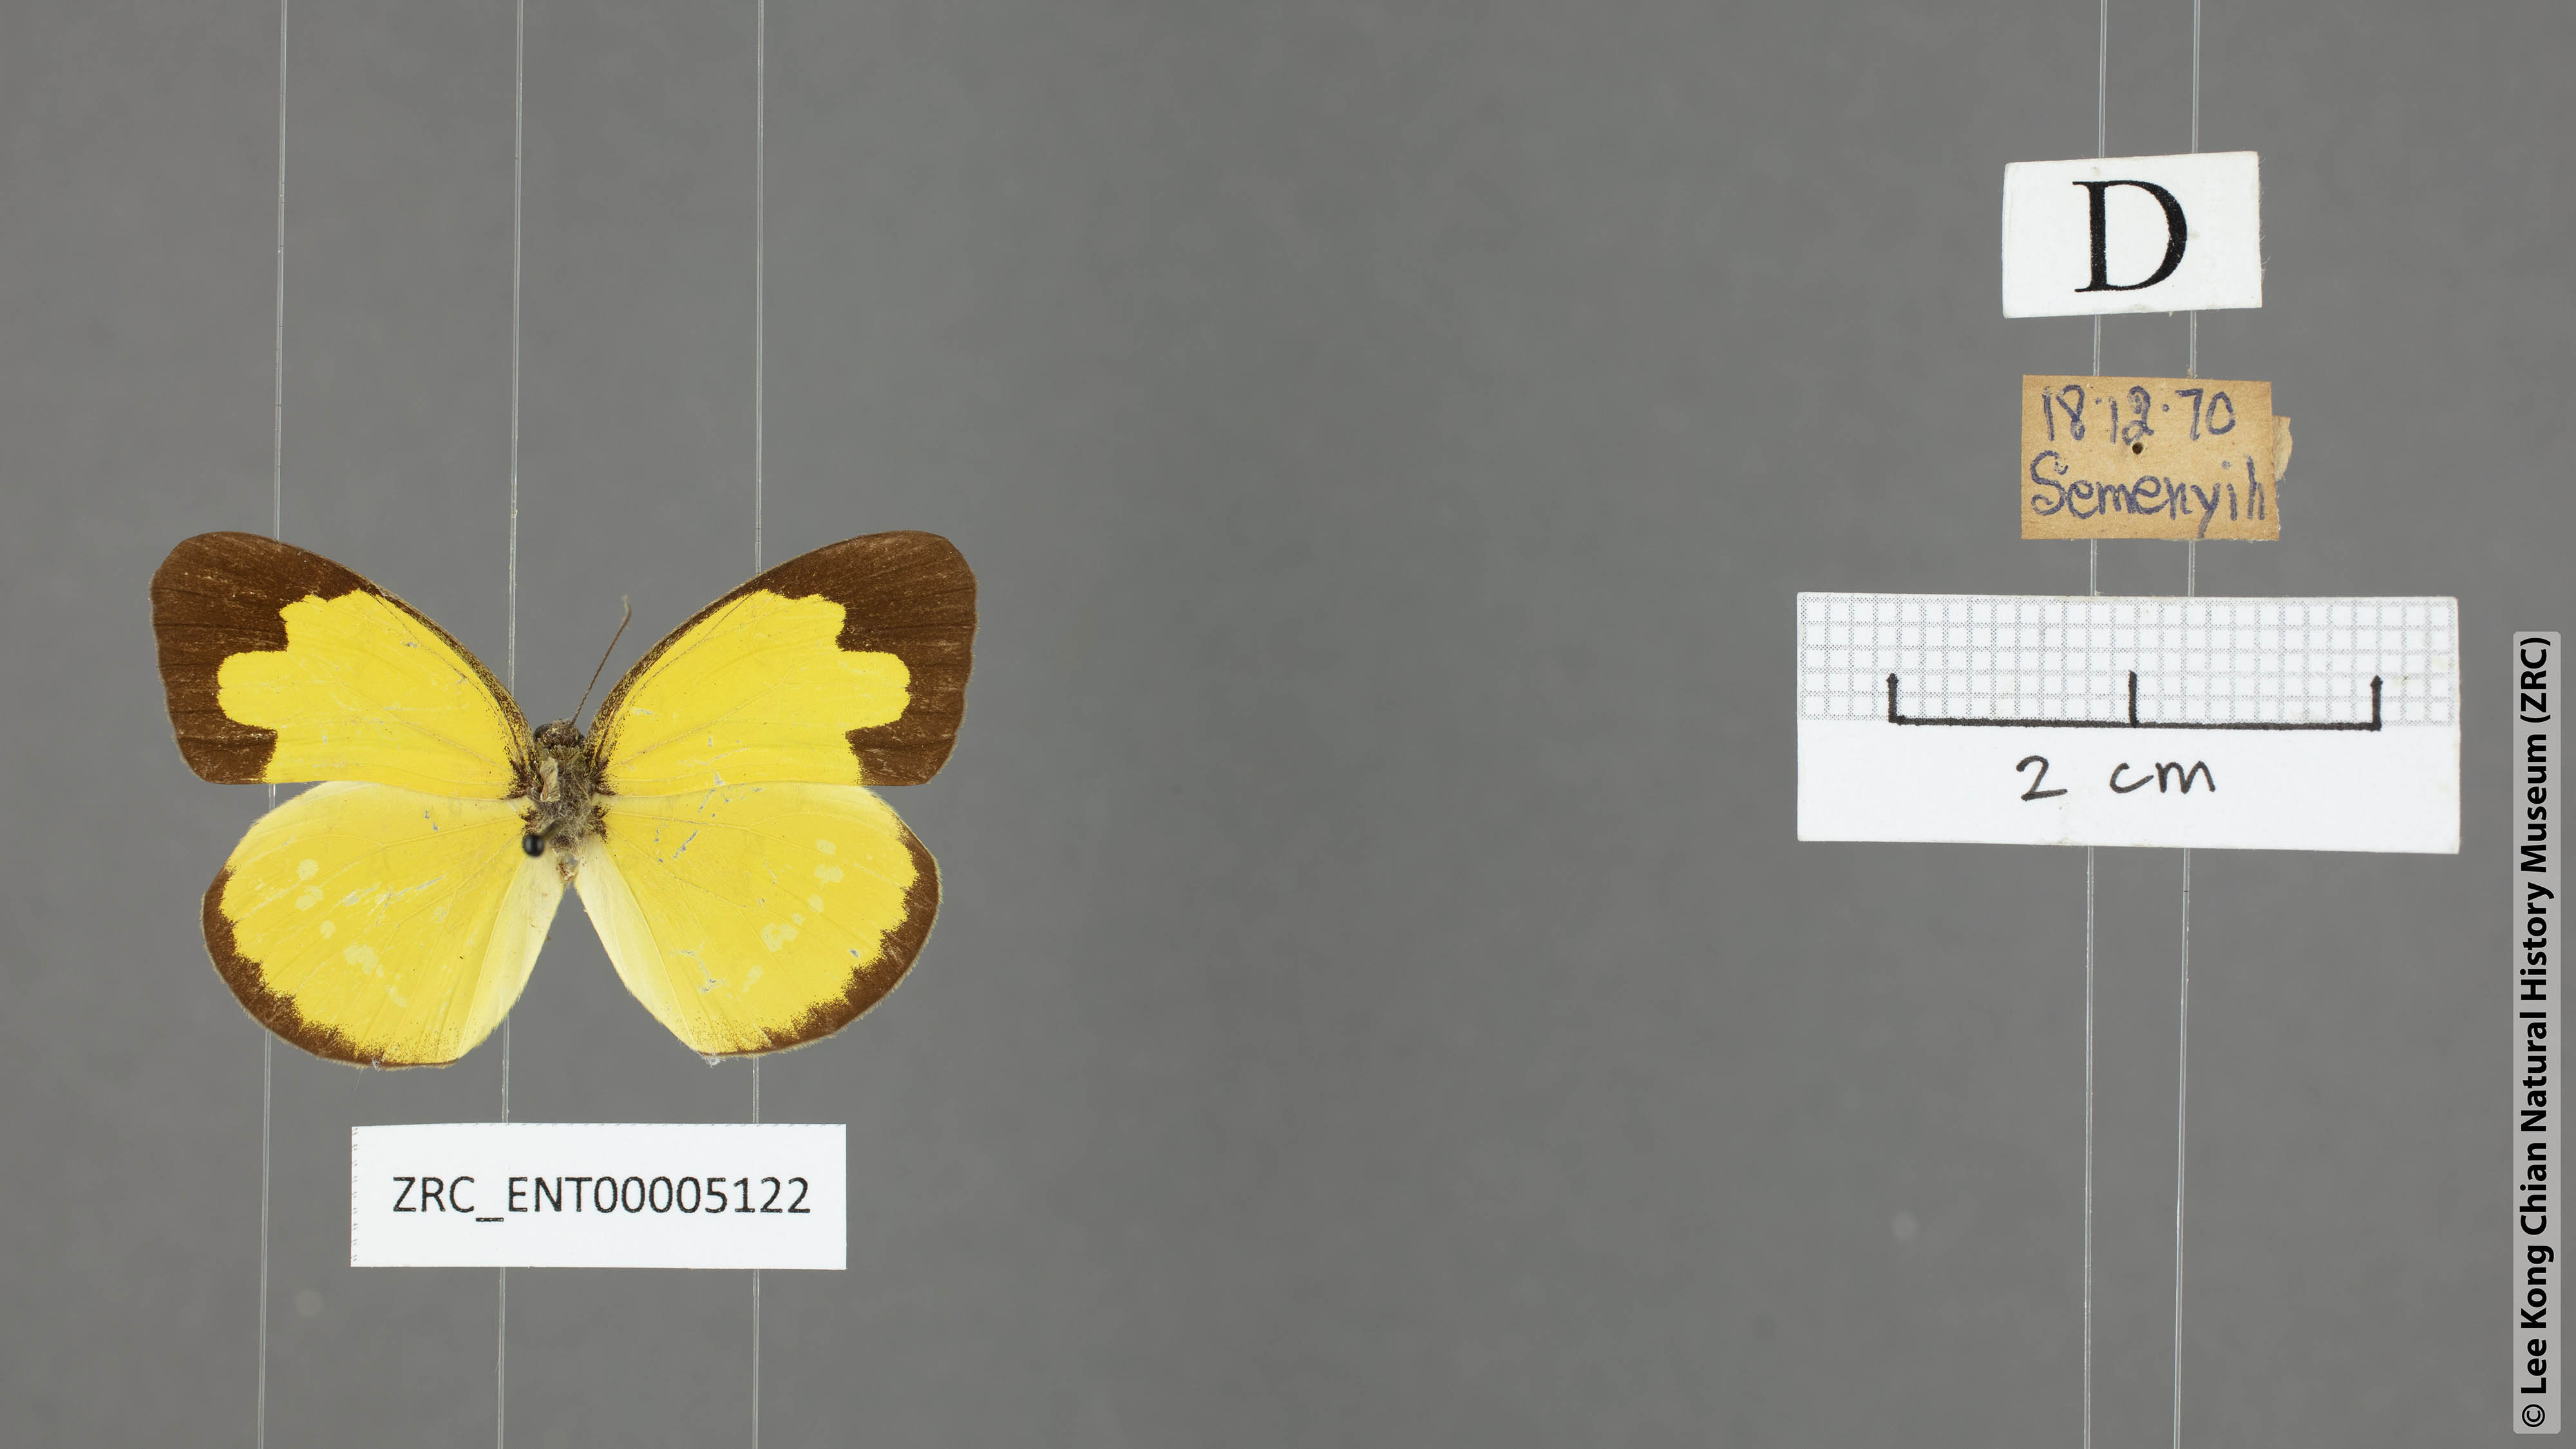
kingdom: Animalia
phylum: Arthropoda
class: Insecta
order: Lepidoptera
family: Pieridae
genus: Eurema
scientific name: Eurema andersoni
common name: One-spot yellow grass
